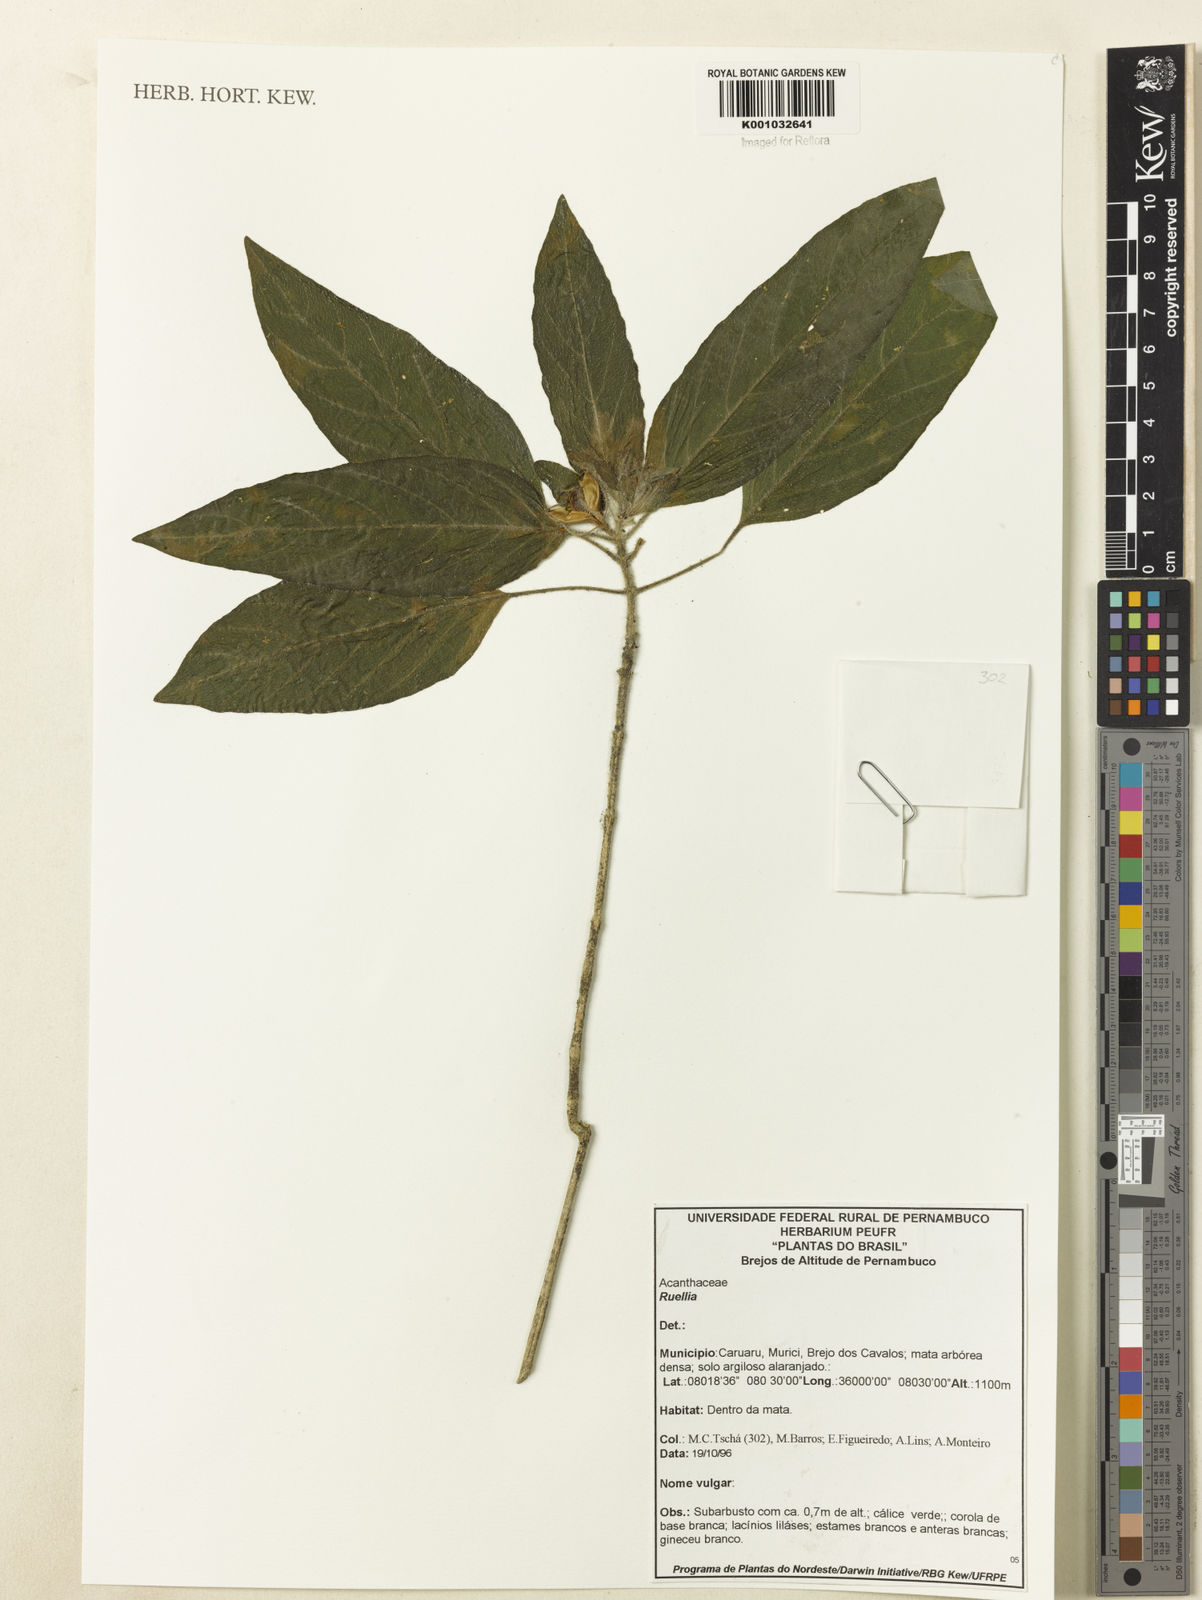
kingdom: Plantae
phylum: Tracheophyta
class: Magnoliopsida
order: Lamiales
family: Acanthaceae
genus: Ruellia
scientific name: Ruellia
